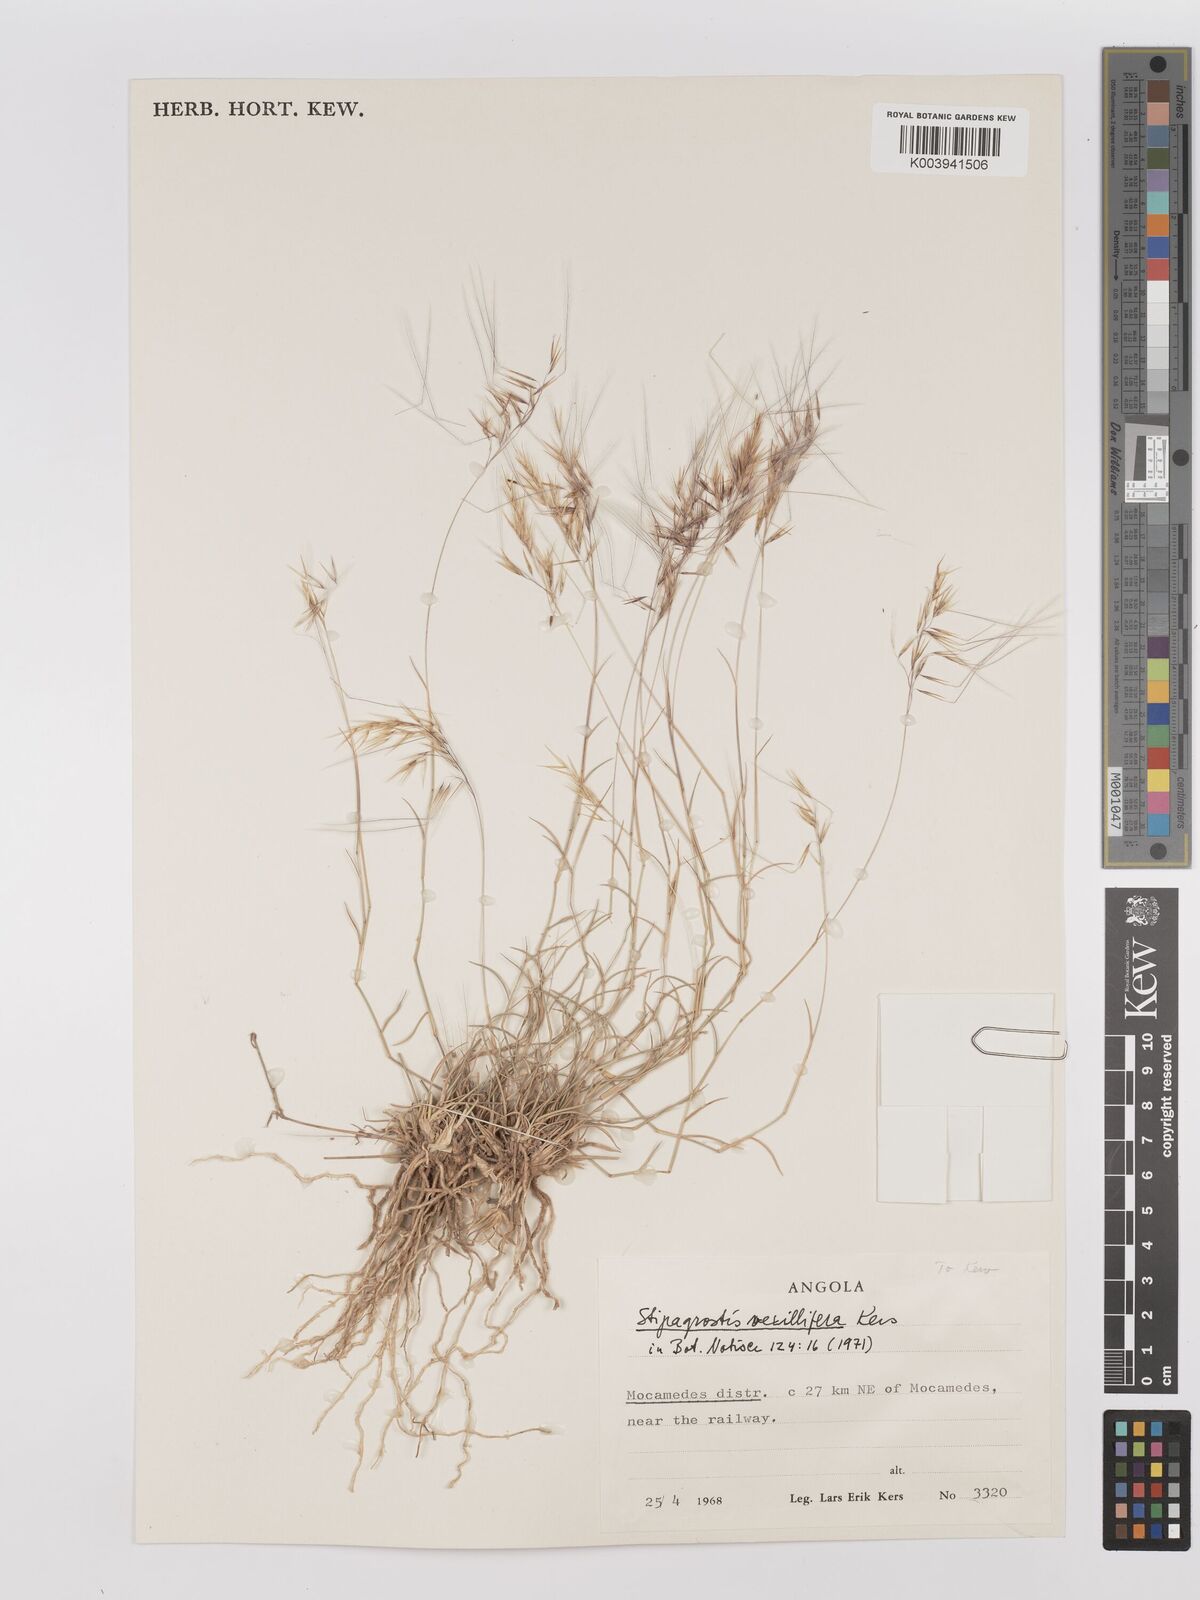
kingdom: Plantae
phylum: Tracheophyta
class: Liliopsida
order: Poales
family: Poaceae
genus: Stipagrostis
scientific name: Stipagrostis vexillifeta
